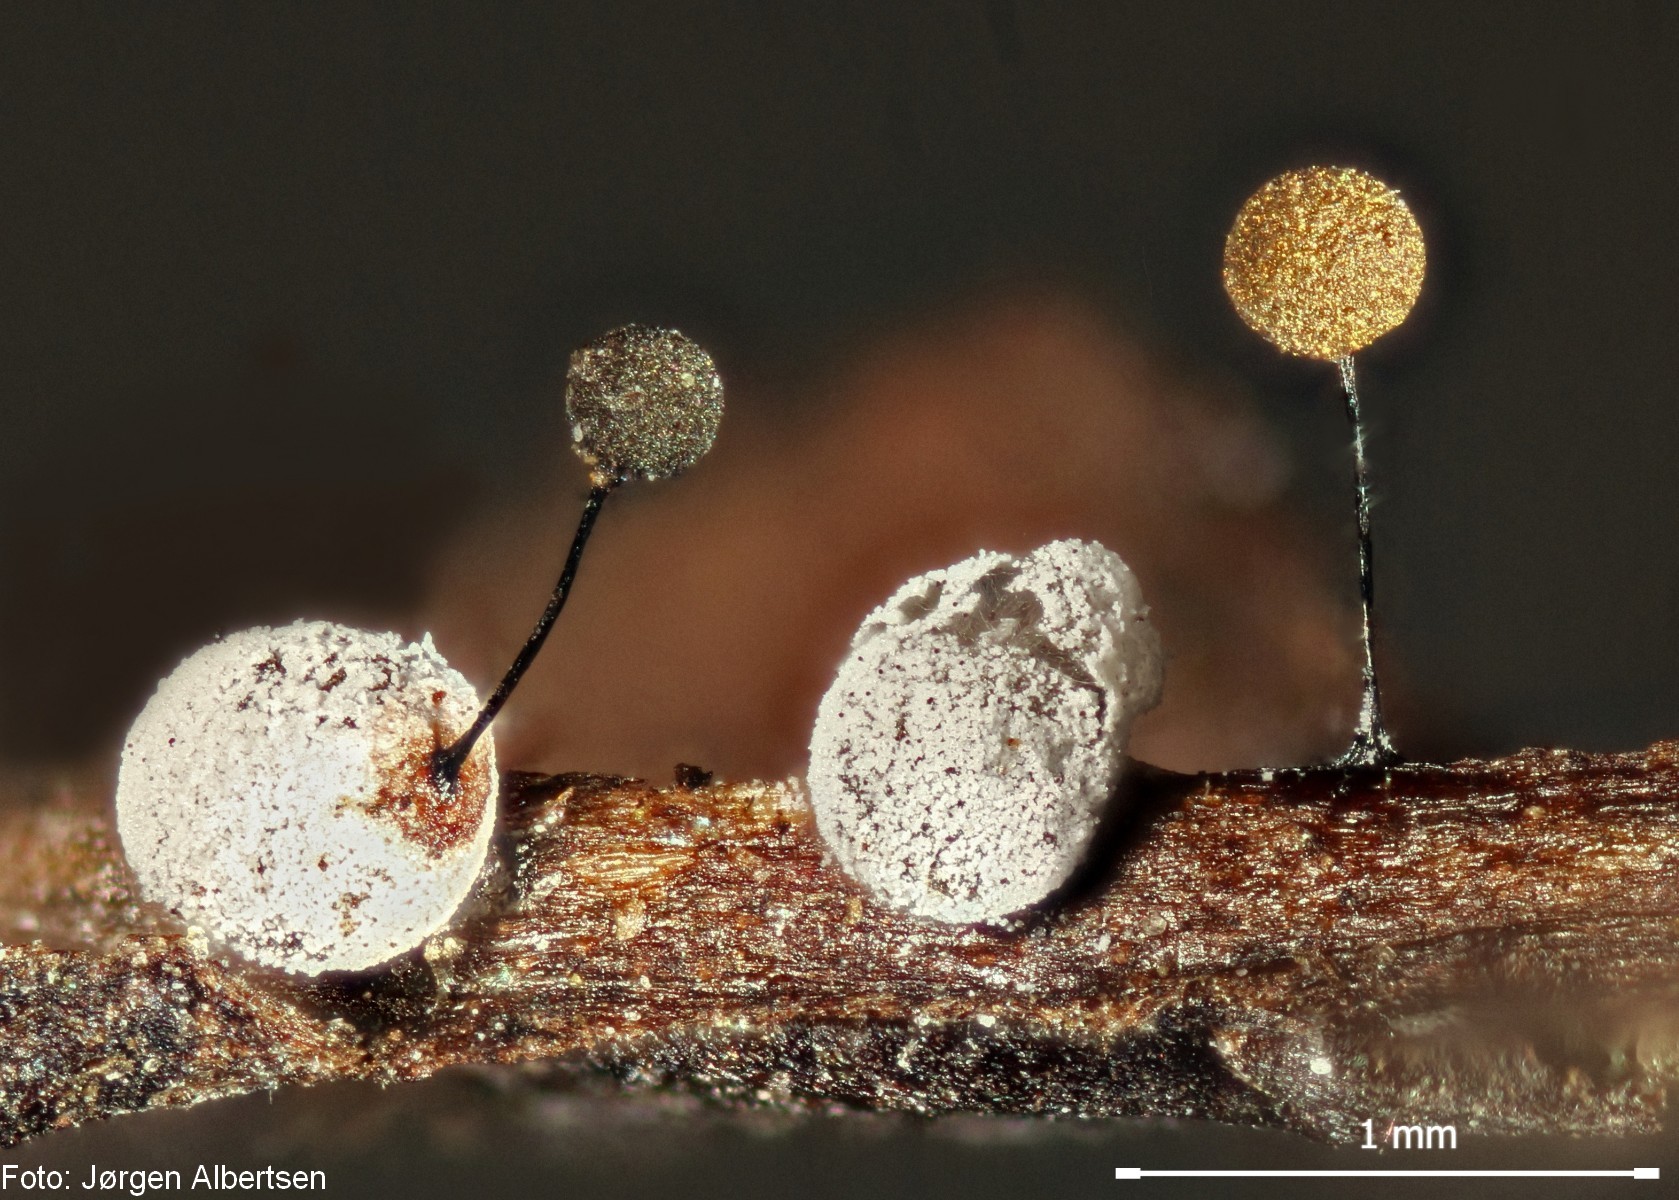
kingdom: Protozoa
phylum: Mycetozoa
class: Myxomycetes
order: Physarales
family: Didymiaceae
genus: Didymium
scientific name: Didymium squamulosum
